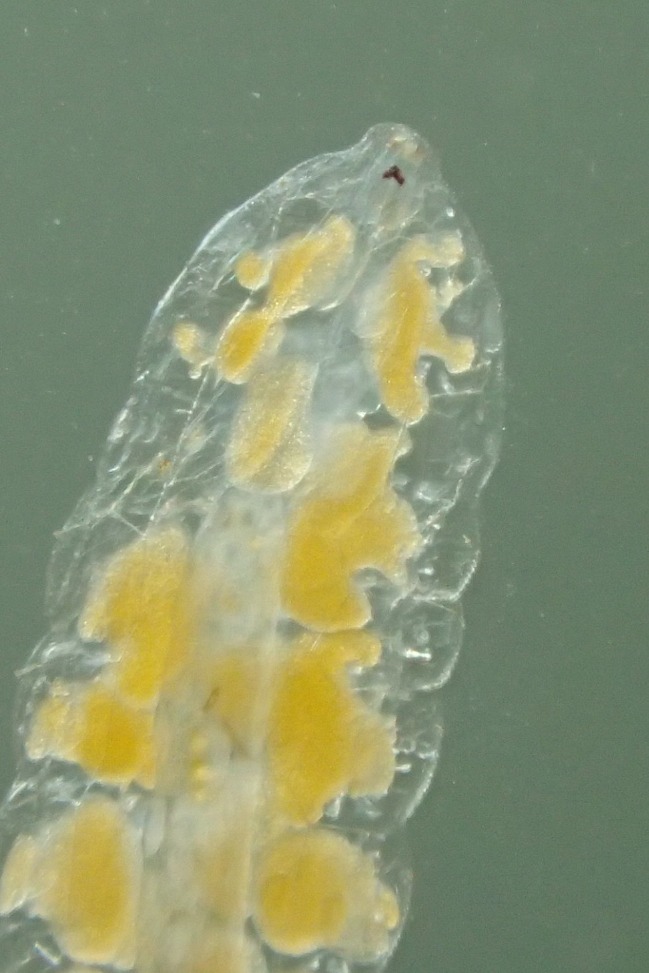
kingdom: Animalia
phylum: Arthropoda
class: Insecta
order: Diptera
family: Cecidomyiidae
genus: Planetella
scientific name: Planetella tarda
